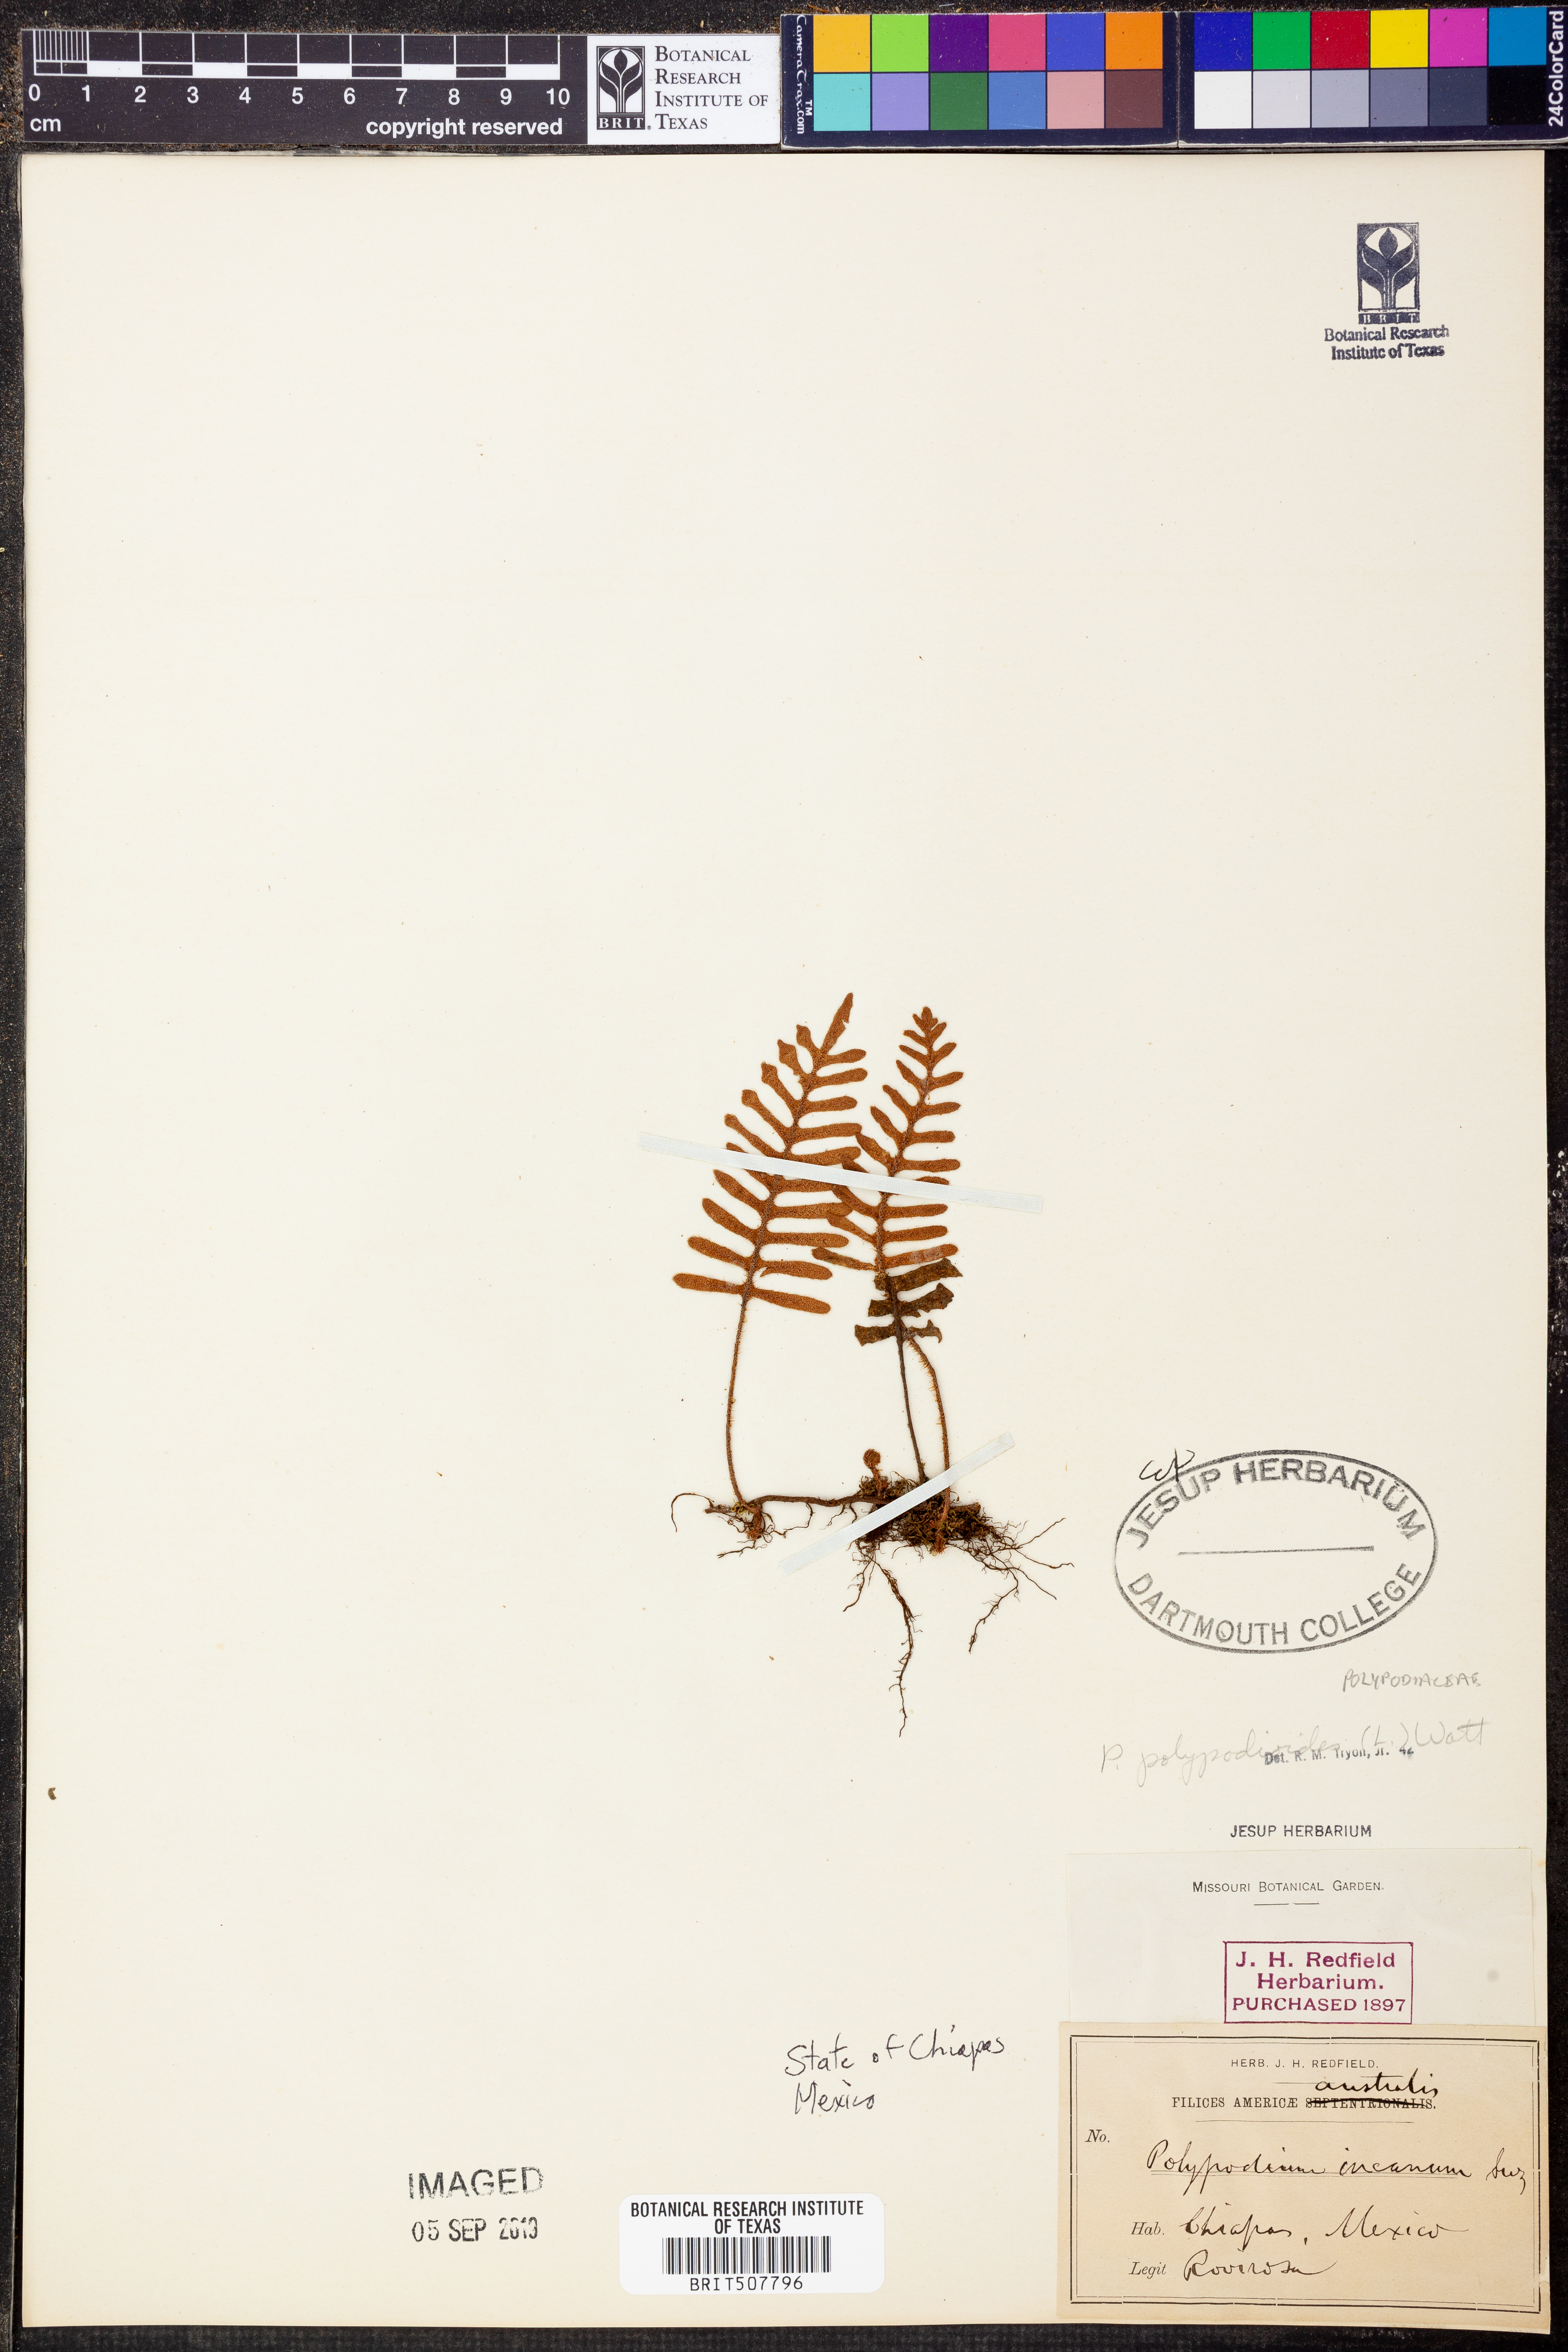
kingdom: Plantae
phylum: Tracheophyta
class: Polypodiopsida
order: Polypodiales
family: Polypodiaceae
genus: Pleopeltis
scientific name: Pleopeltis polypodioides
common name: Resurrection fern
